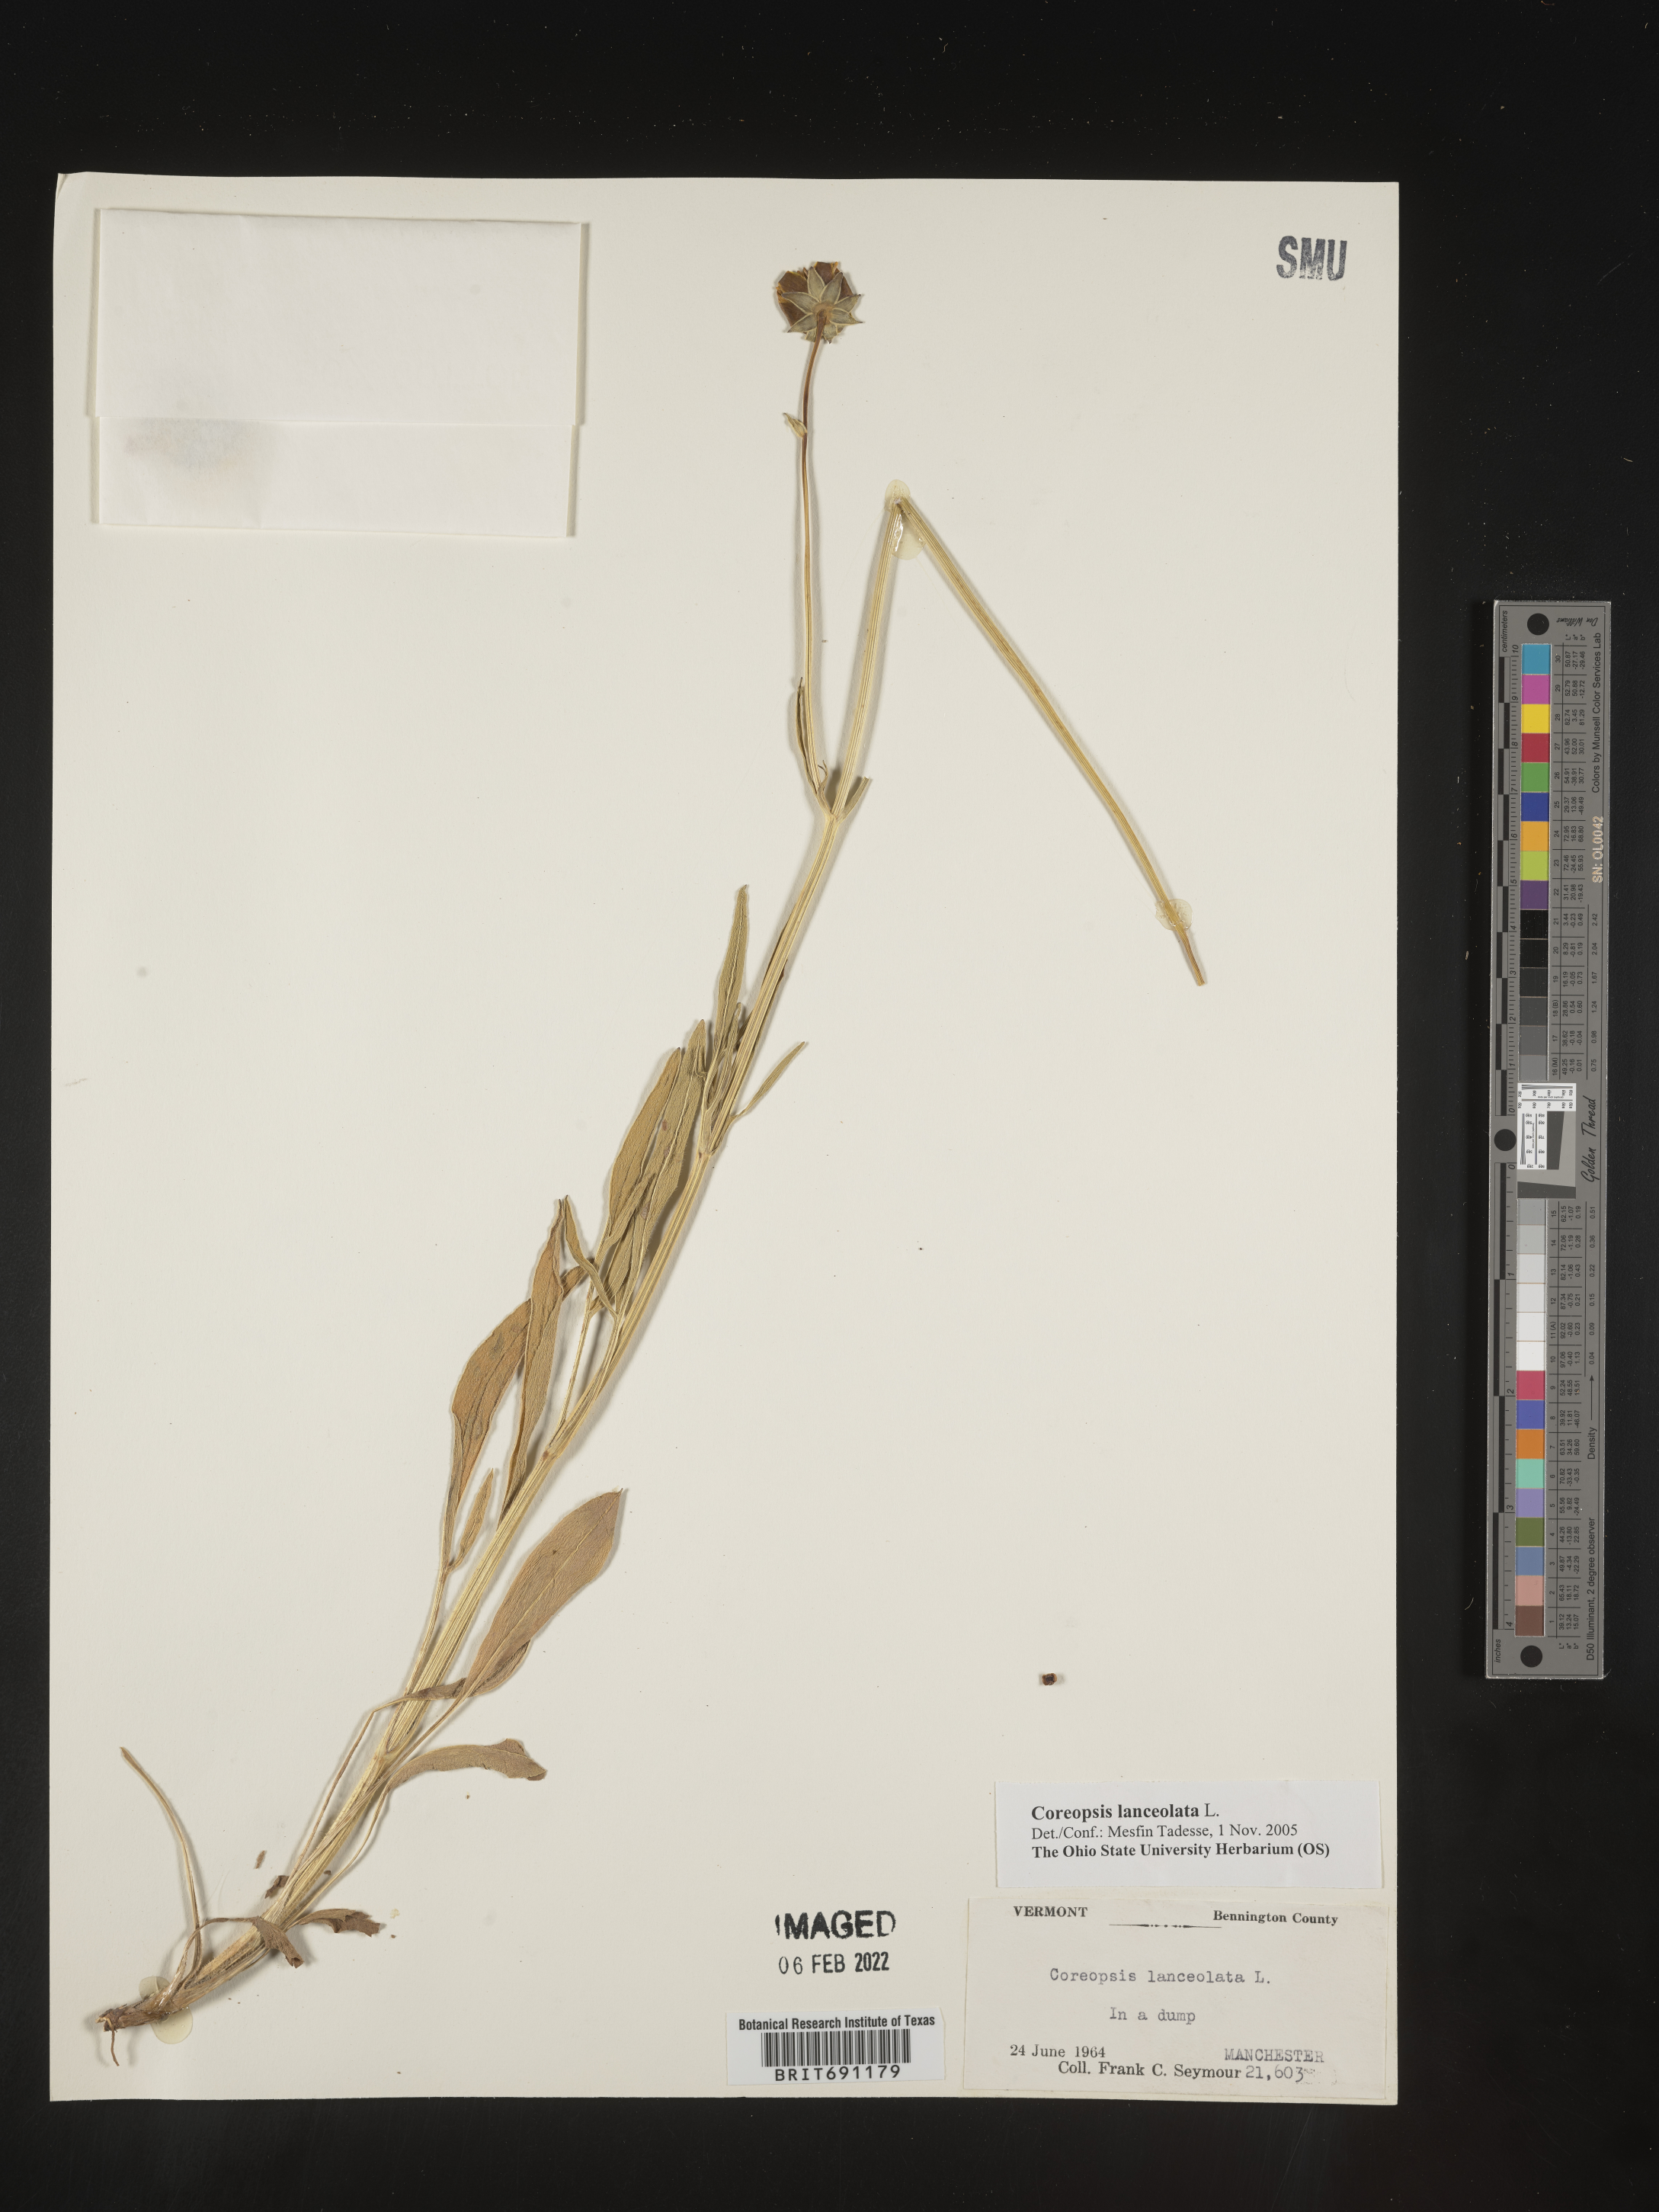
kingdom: Plantae
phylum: Tracheophyta
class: Magnoliopsida
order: Asterales
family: Asteraceae
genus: Coreopsis
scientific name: Coreopsis lanceolata
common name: Garden coreopsis
